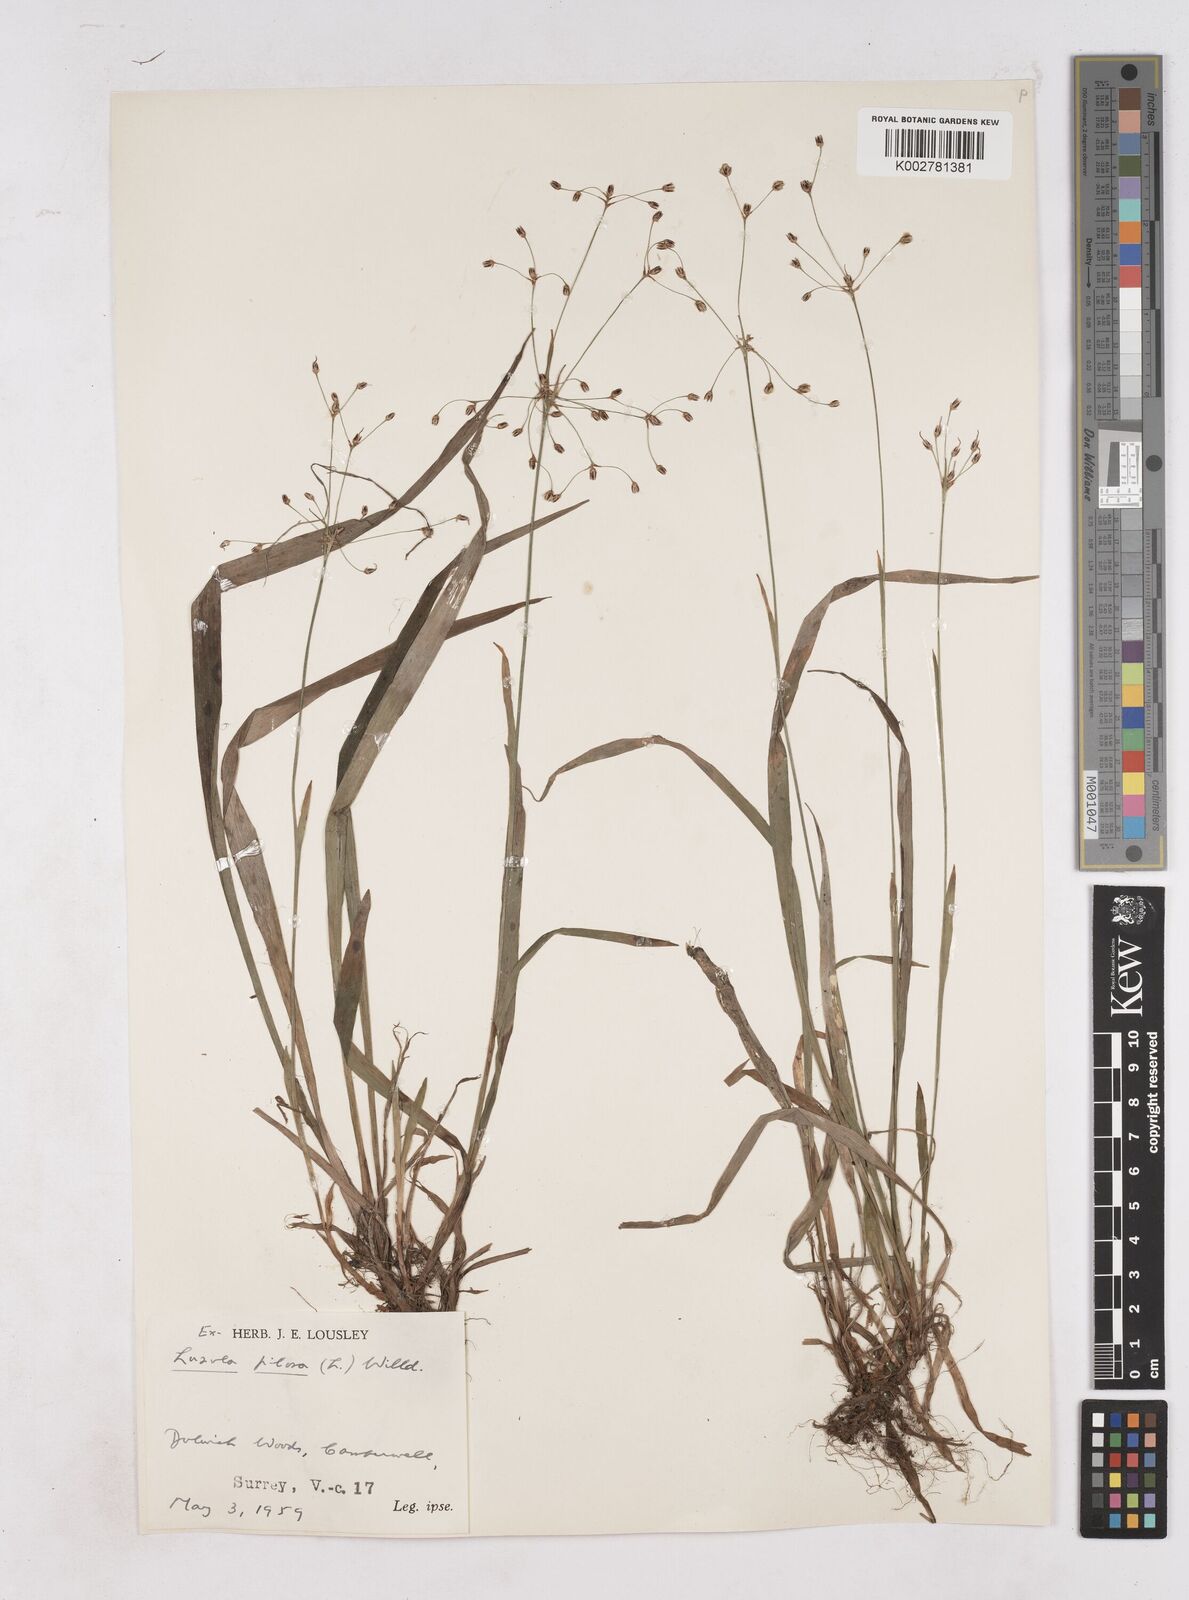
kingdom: Plantae
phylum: Tracheophyta
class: Liliopsida
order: Poales
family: Juncaceae
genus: Luzula
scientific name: Luzula pilosa
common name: Hairy wood-rush
